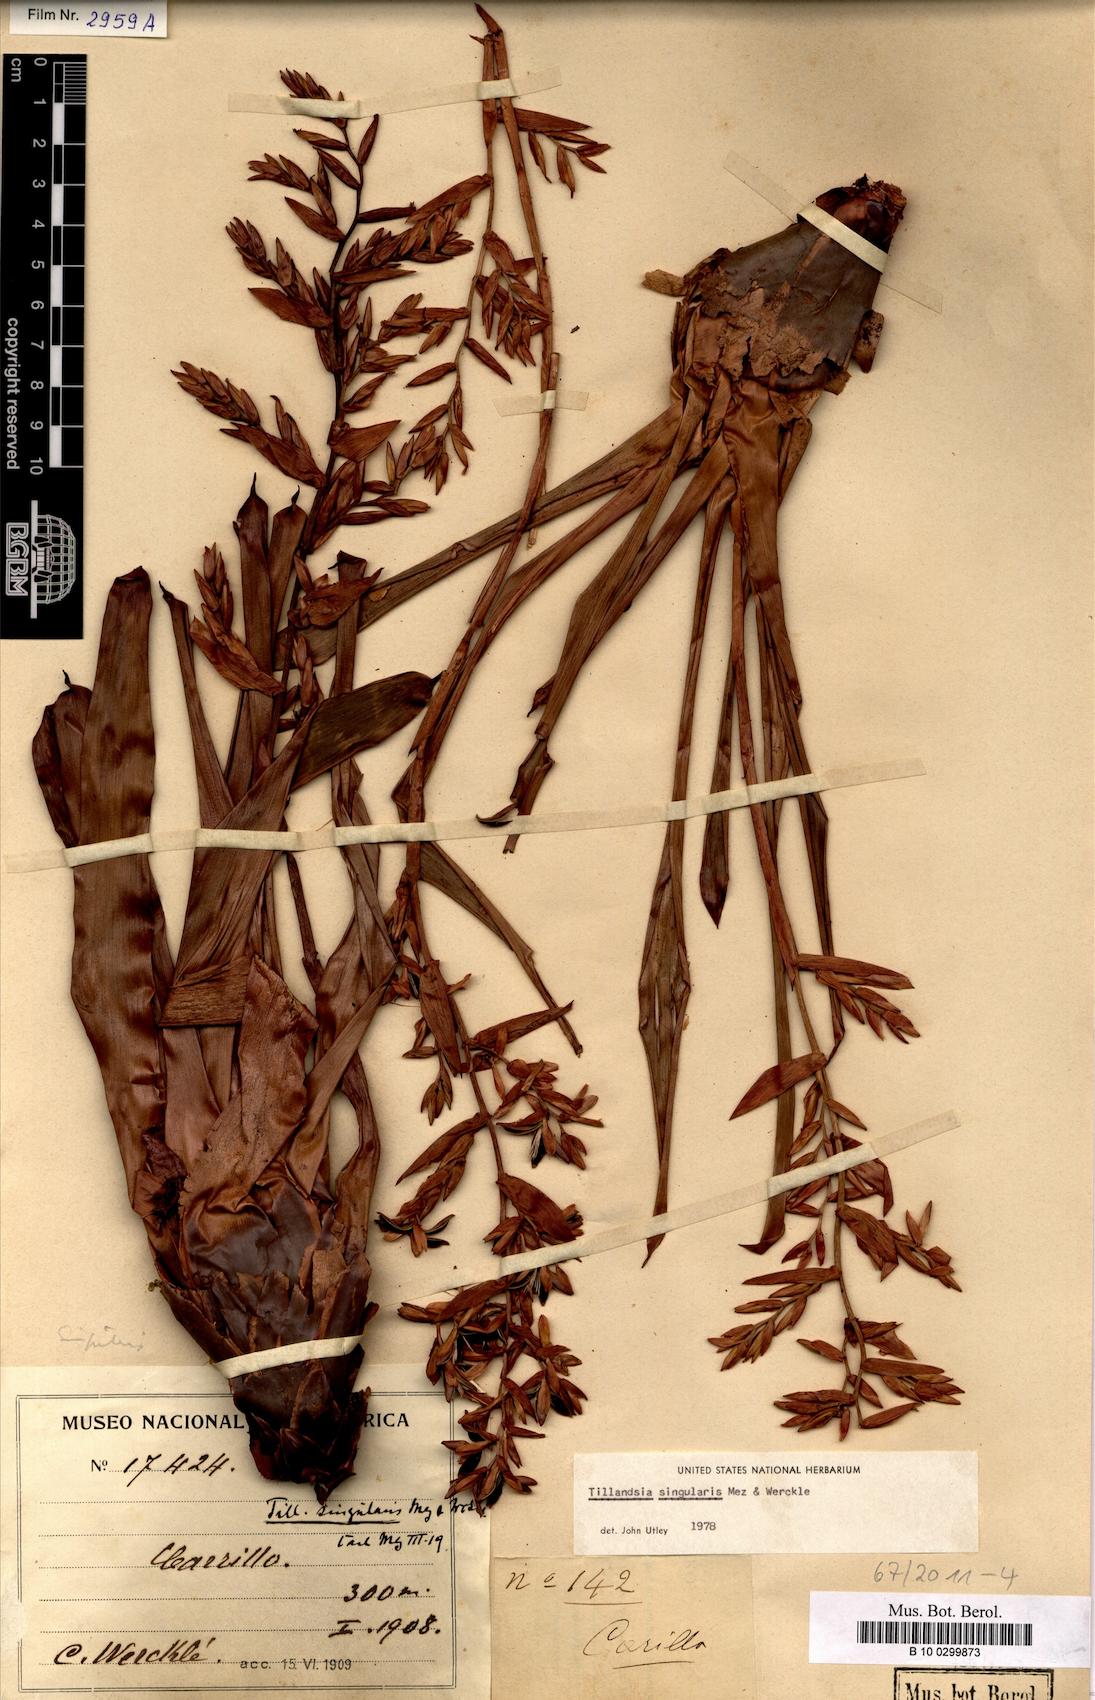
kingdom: Plantae
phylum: Tracheophyta
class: Liliopsida
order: Poales
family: Bromeliaceae
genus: Cipuropsis
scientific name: Cipuropsis singularis
